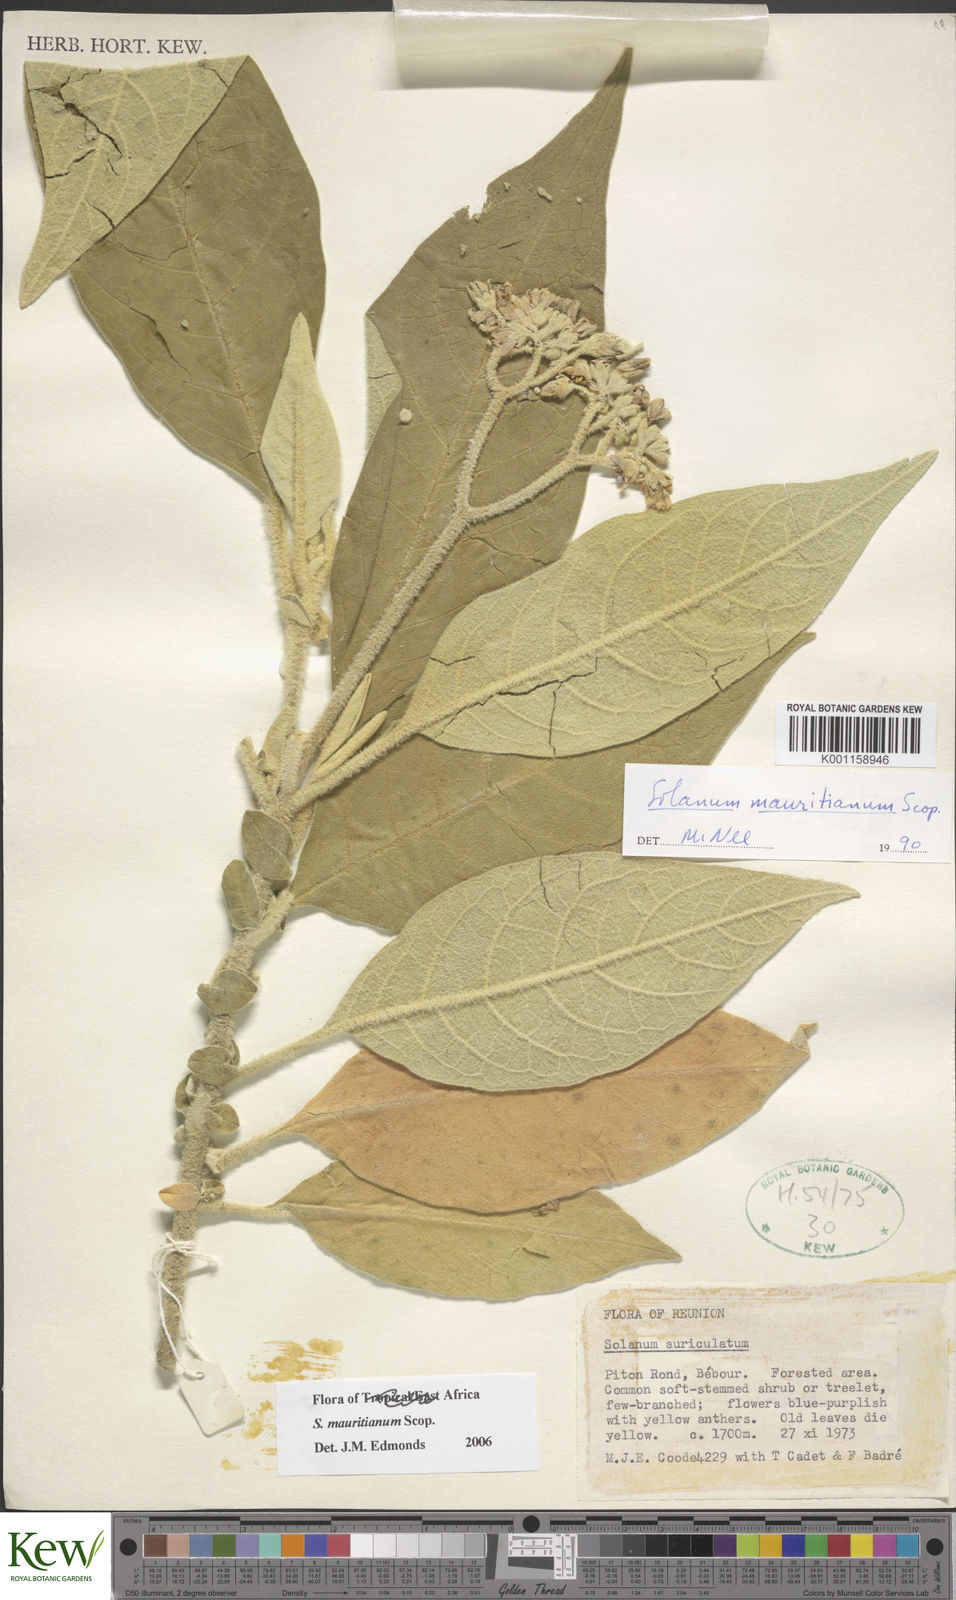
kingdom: Plantae
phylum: Tracheophyta
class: Magnoliopsida
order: Solanales
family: Solanaceae
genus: Solanum
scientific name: Solanum mauritianum
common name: Earleaf nightshade
